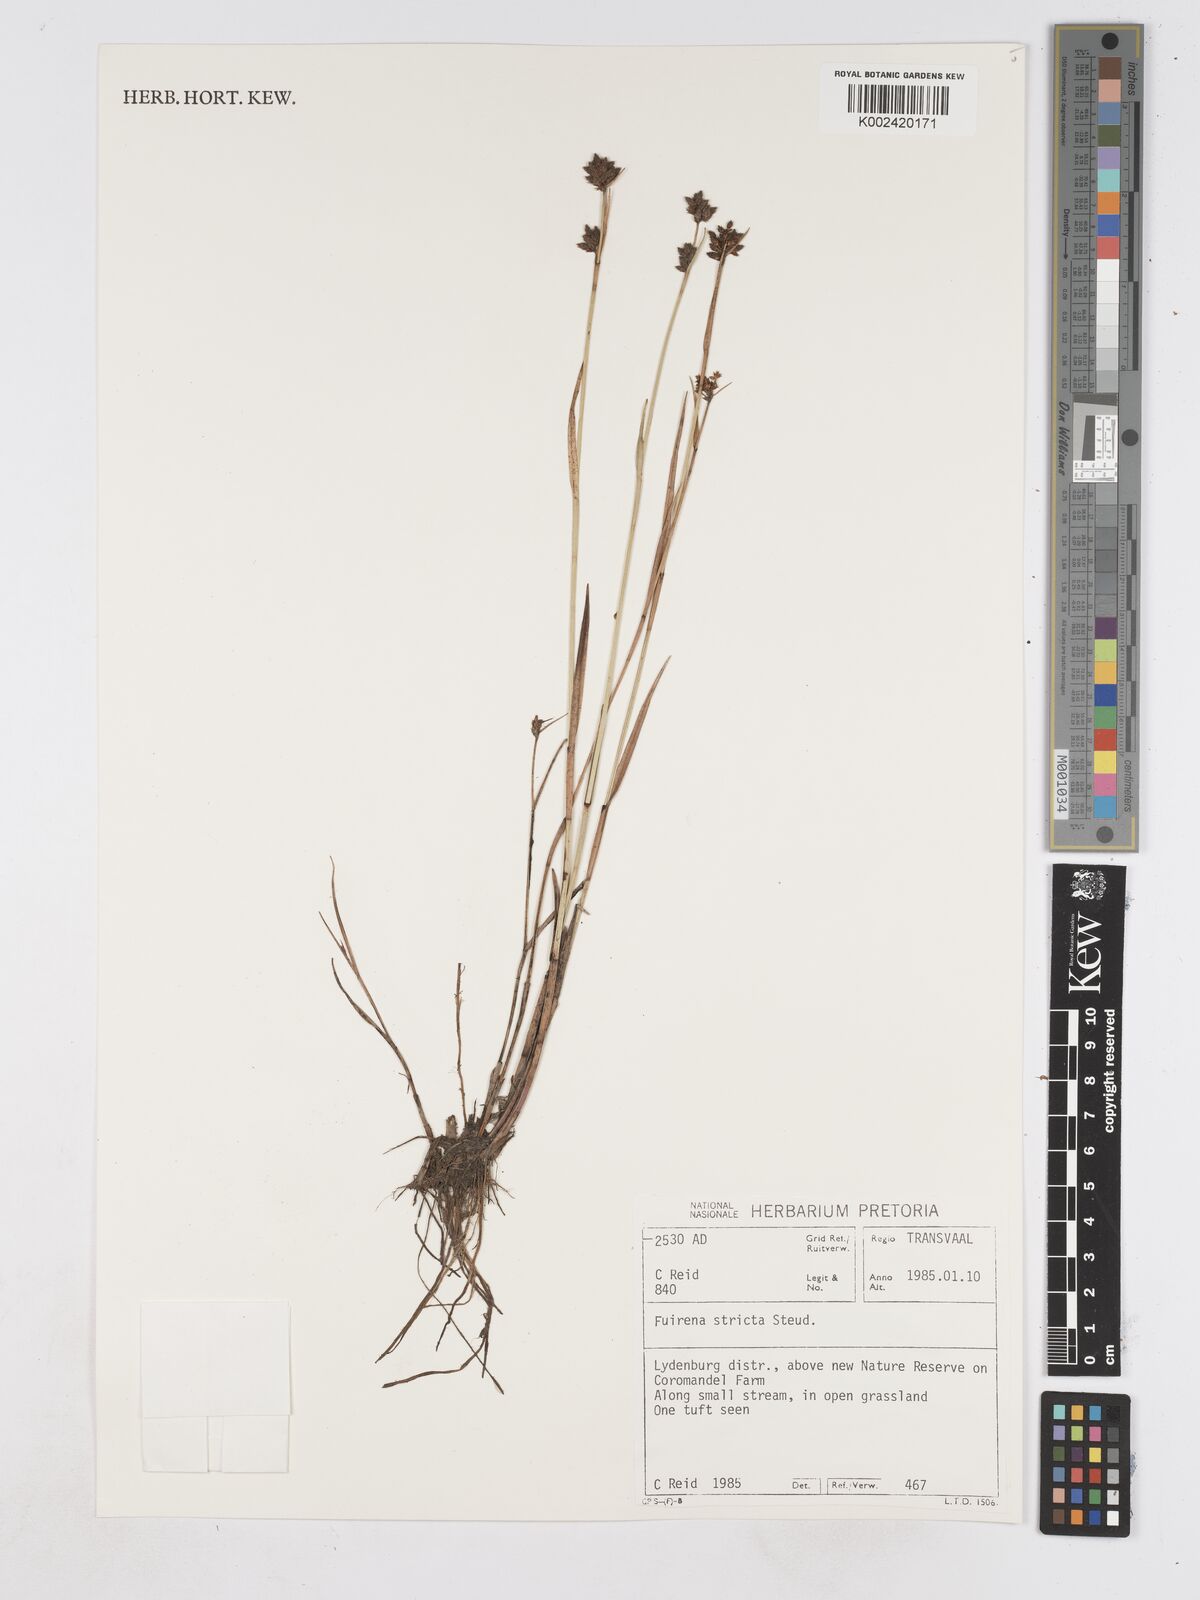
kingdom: Plantae
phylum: Tracheophyta
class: Liliopsida
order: Poales
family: Cyperaceae
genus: Fuirena
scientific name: Fuirena stricta
